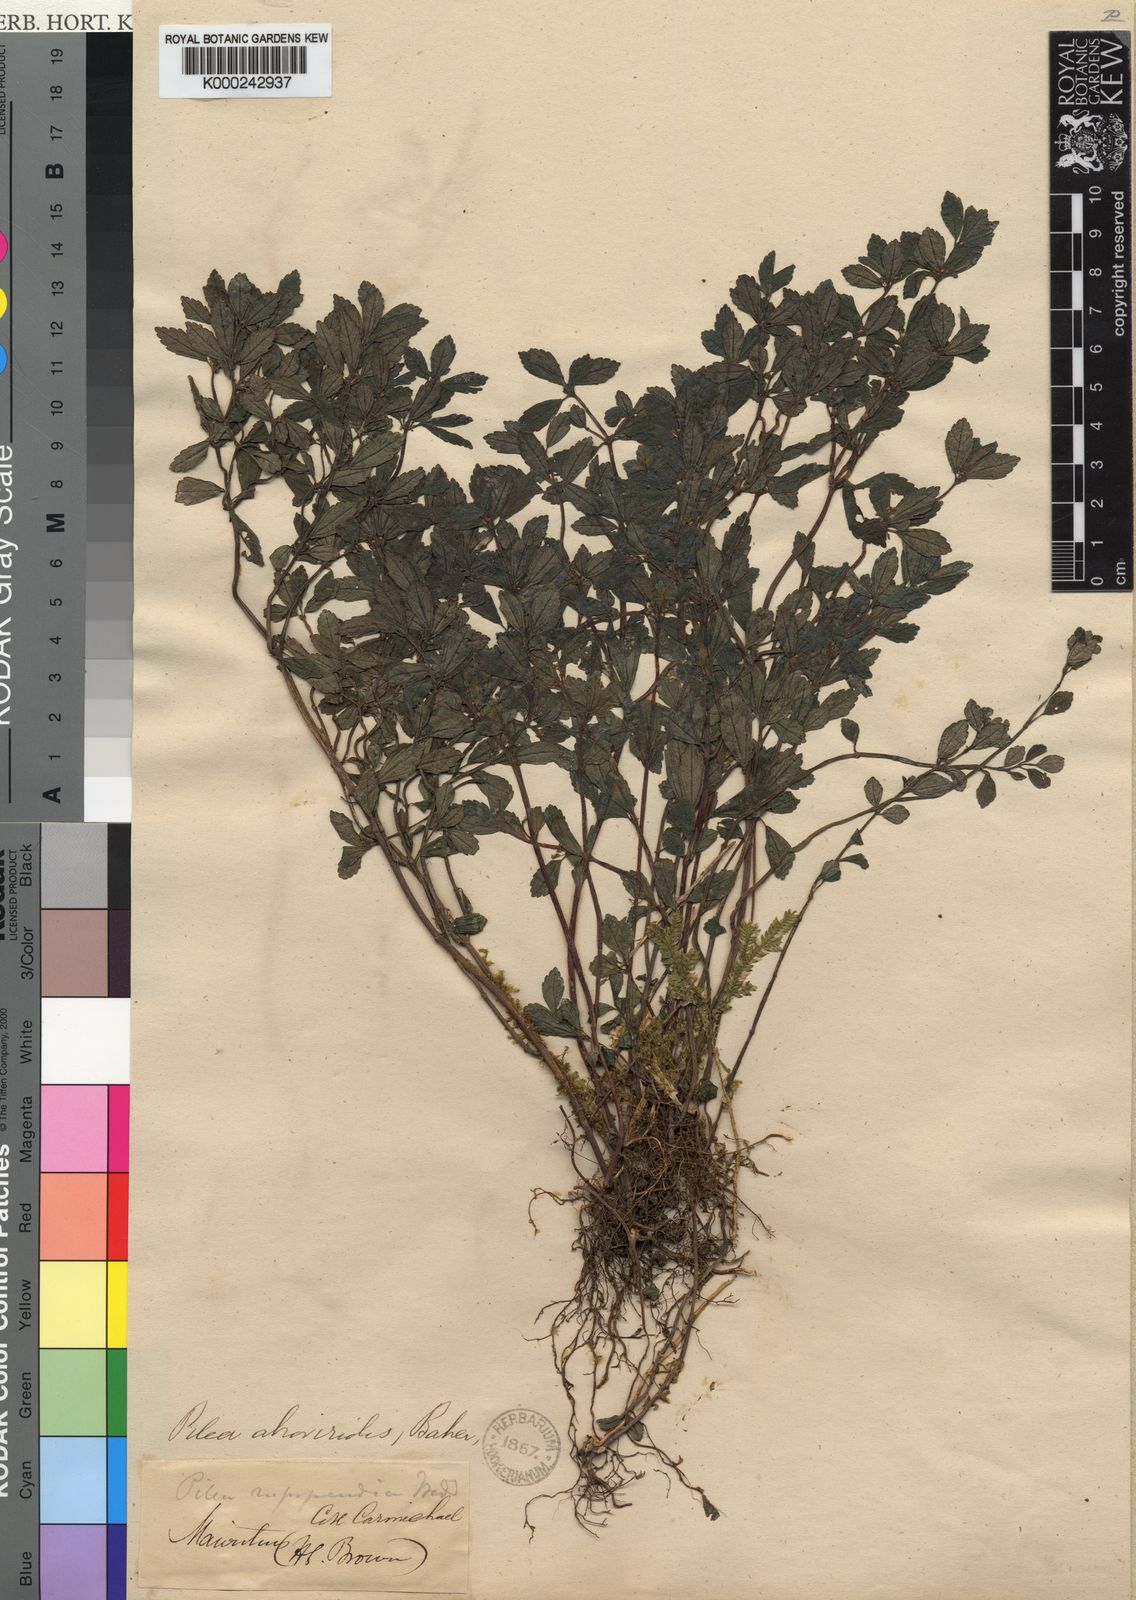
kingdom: Plantae
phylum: Tracheophyta
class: Magnoliopsida
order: Rosales
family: Urticaceae
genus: Pilea
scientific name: Pilea atroviridis
